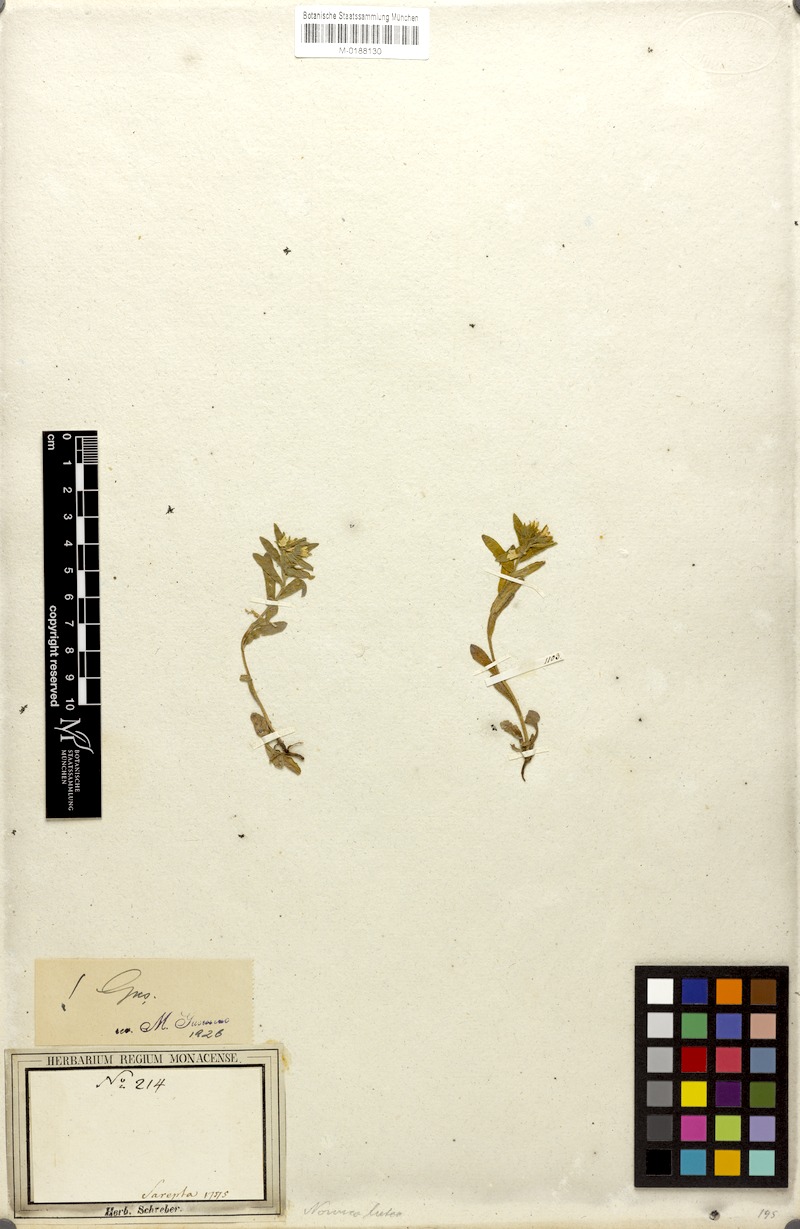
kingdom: Plantae
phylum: Tracheophyta
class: Magnoliopsida
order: Boraginales
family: Boraginaceae
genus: Nonea
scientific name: Nonea lutea
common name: Yellow nonea
